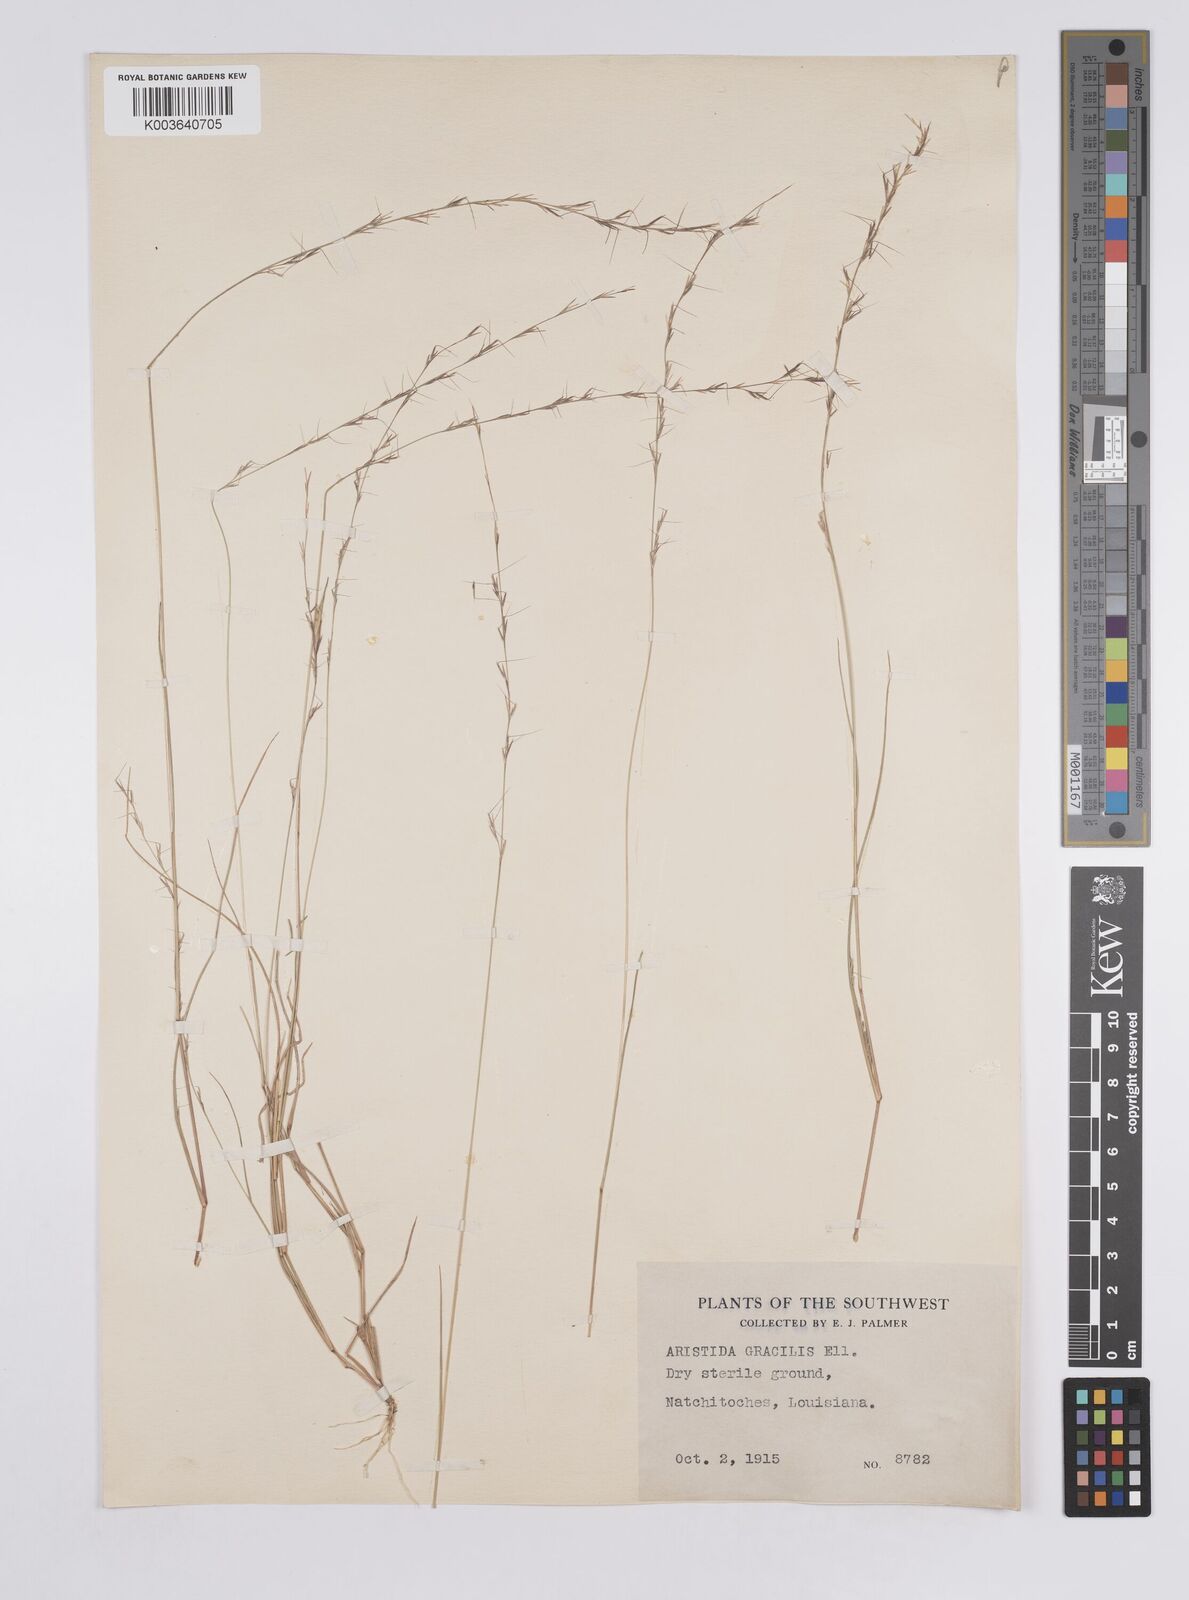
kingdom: Plantae
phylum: Tracheophyta
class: Liliopsida
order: Poales
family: Poaceae
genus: Aristida
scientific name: Aristida longespica
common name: Long-spiked triple-awned grass
